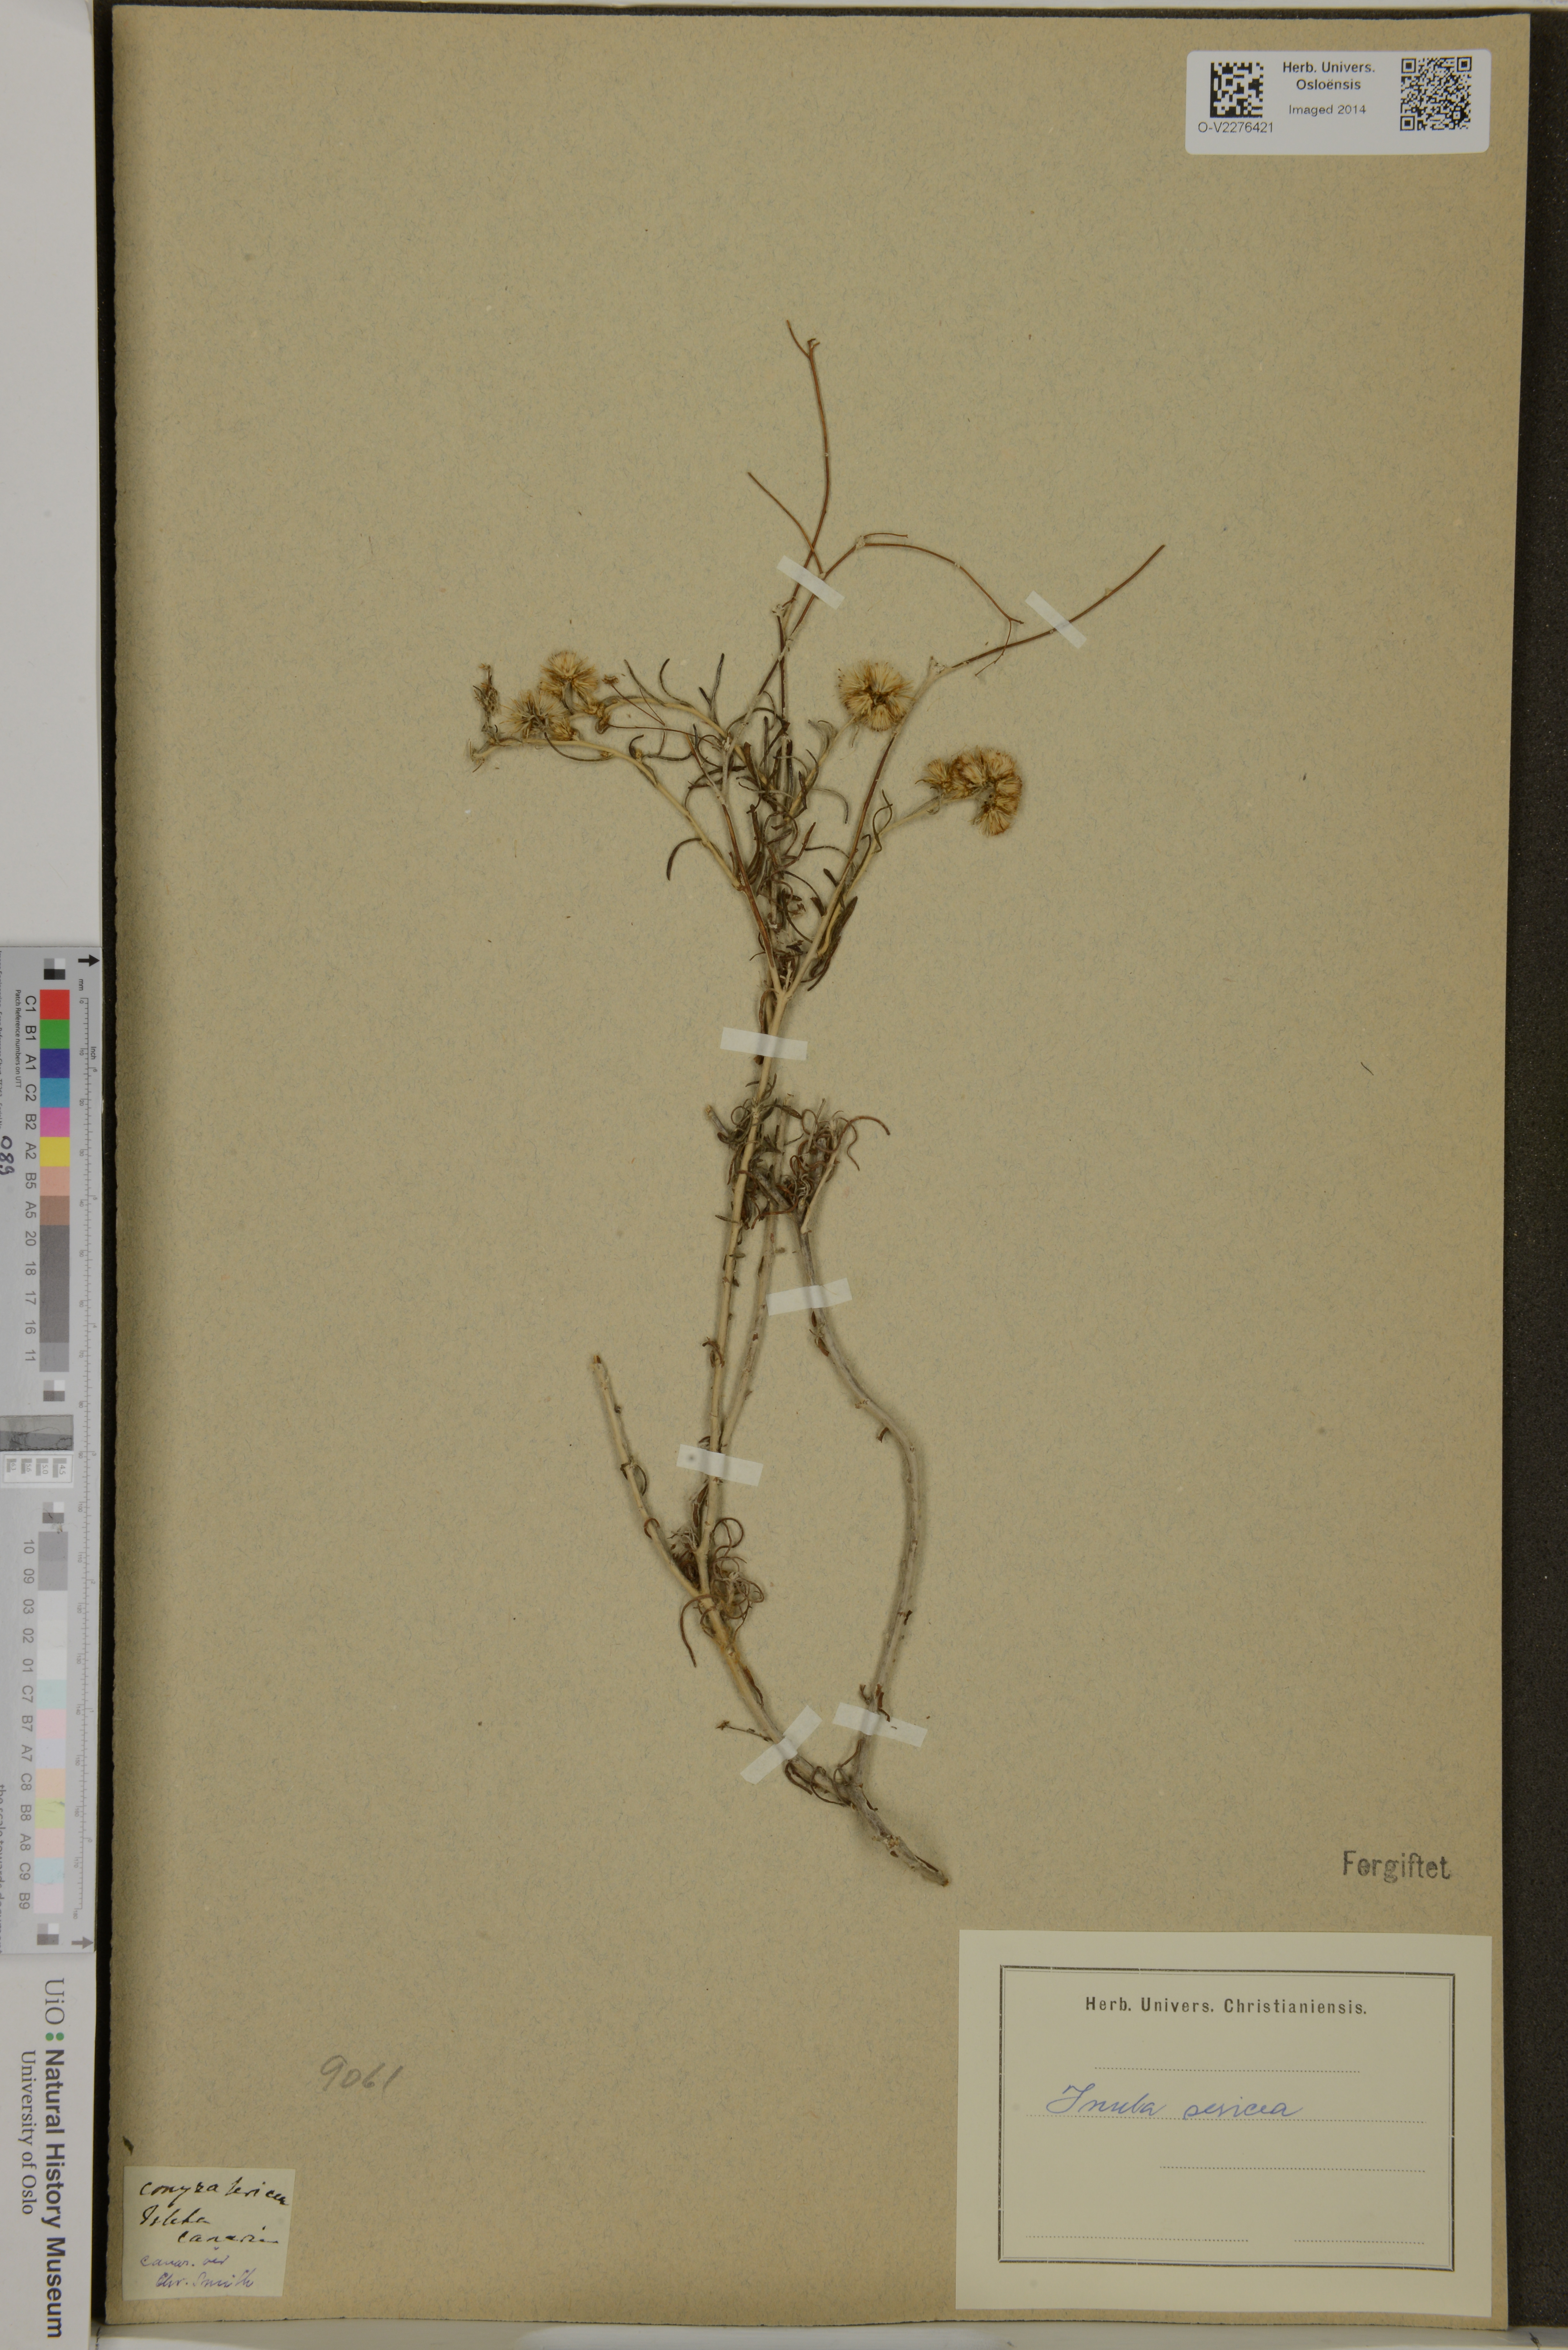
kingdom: Plantae
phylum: Tracheophyta
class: Magnoliopsida
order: Asterales
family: Asteraceae
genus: Pentanema
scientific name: Pentanema oculus-christi
